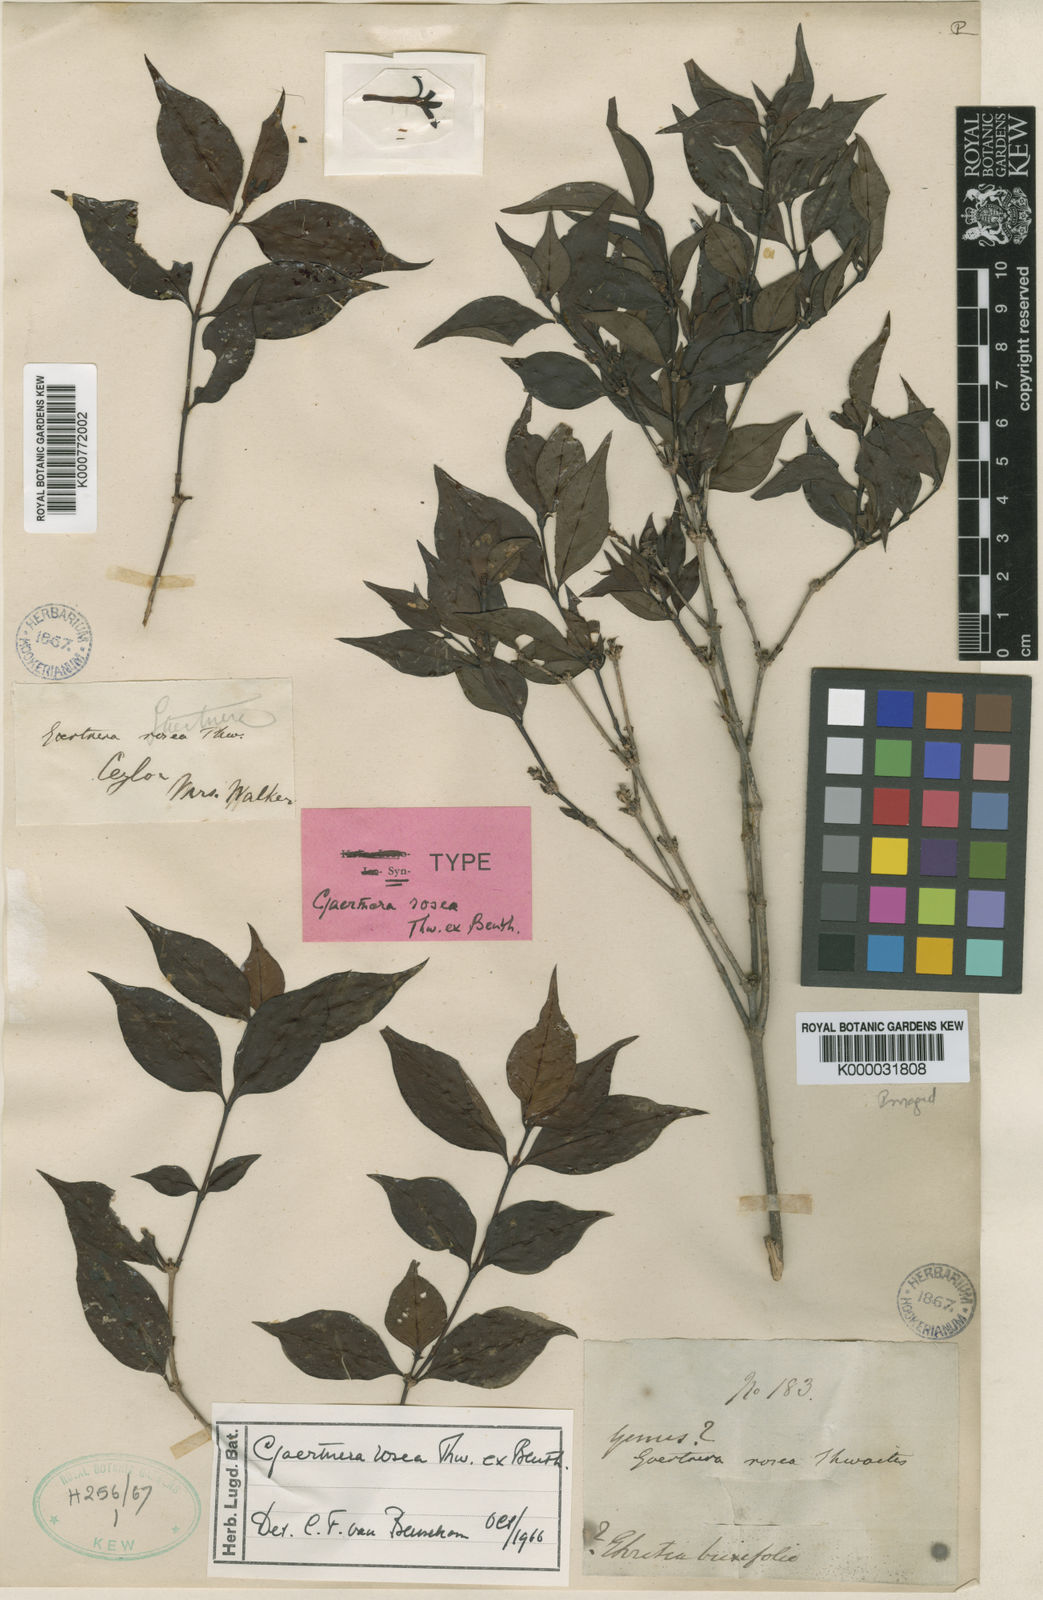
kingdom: Plantae
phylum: Tracheophyta
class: Magnoliopsida
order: Gentianales
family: Rubiaceae
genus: Gaertnera
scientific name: Gaertnera rosea
